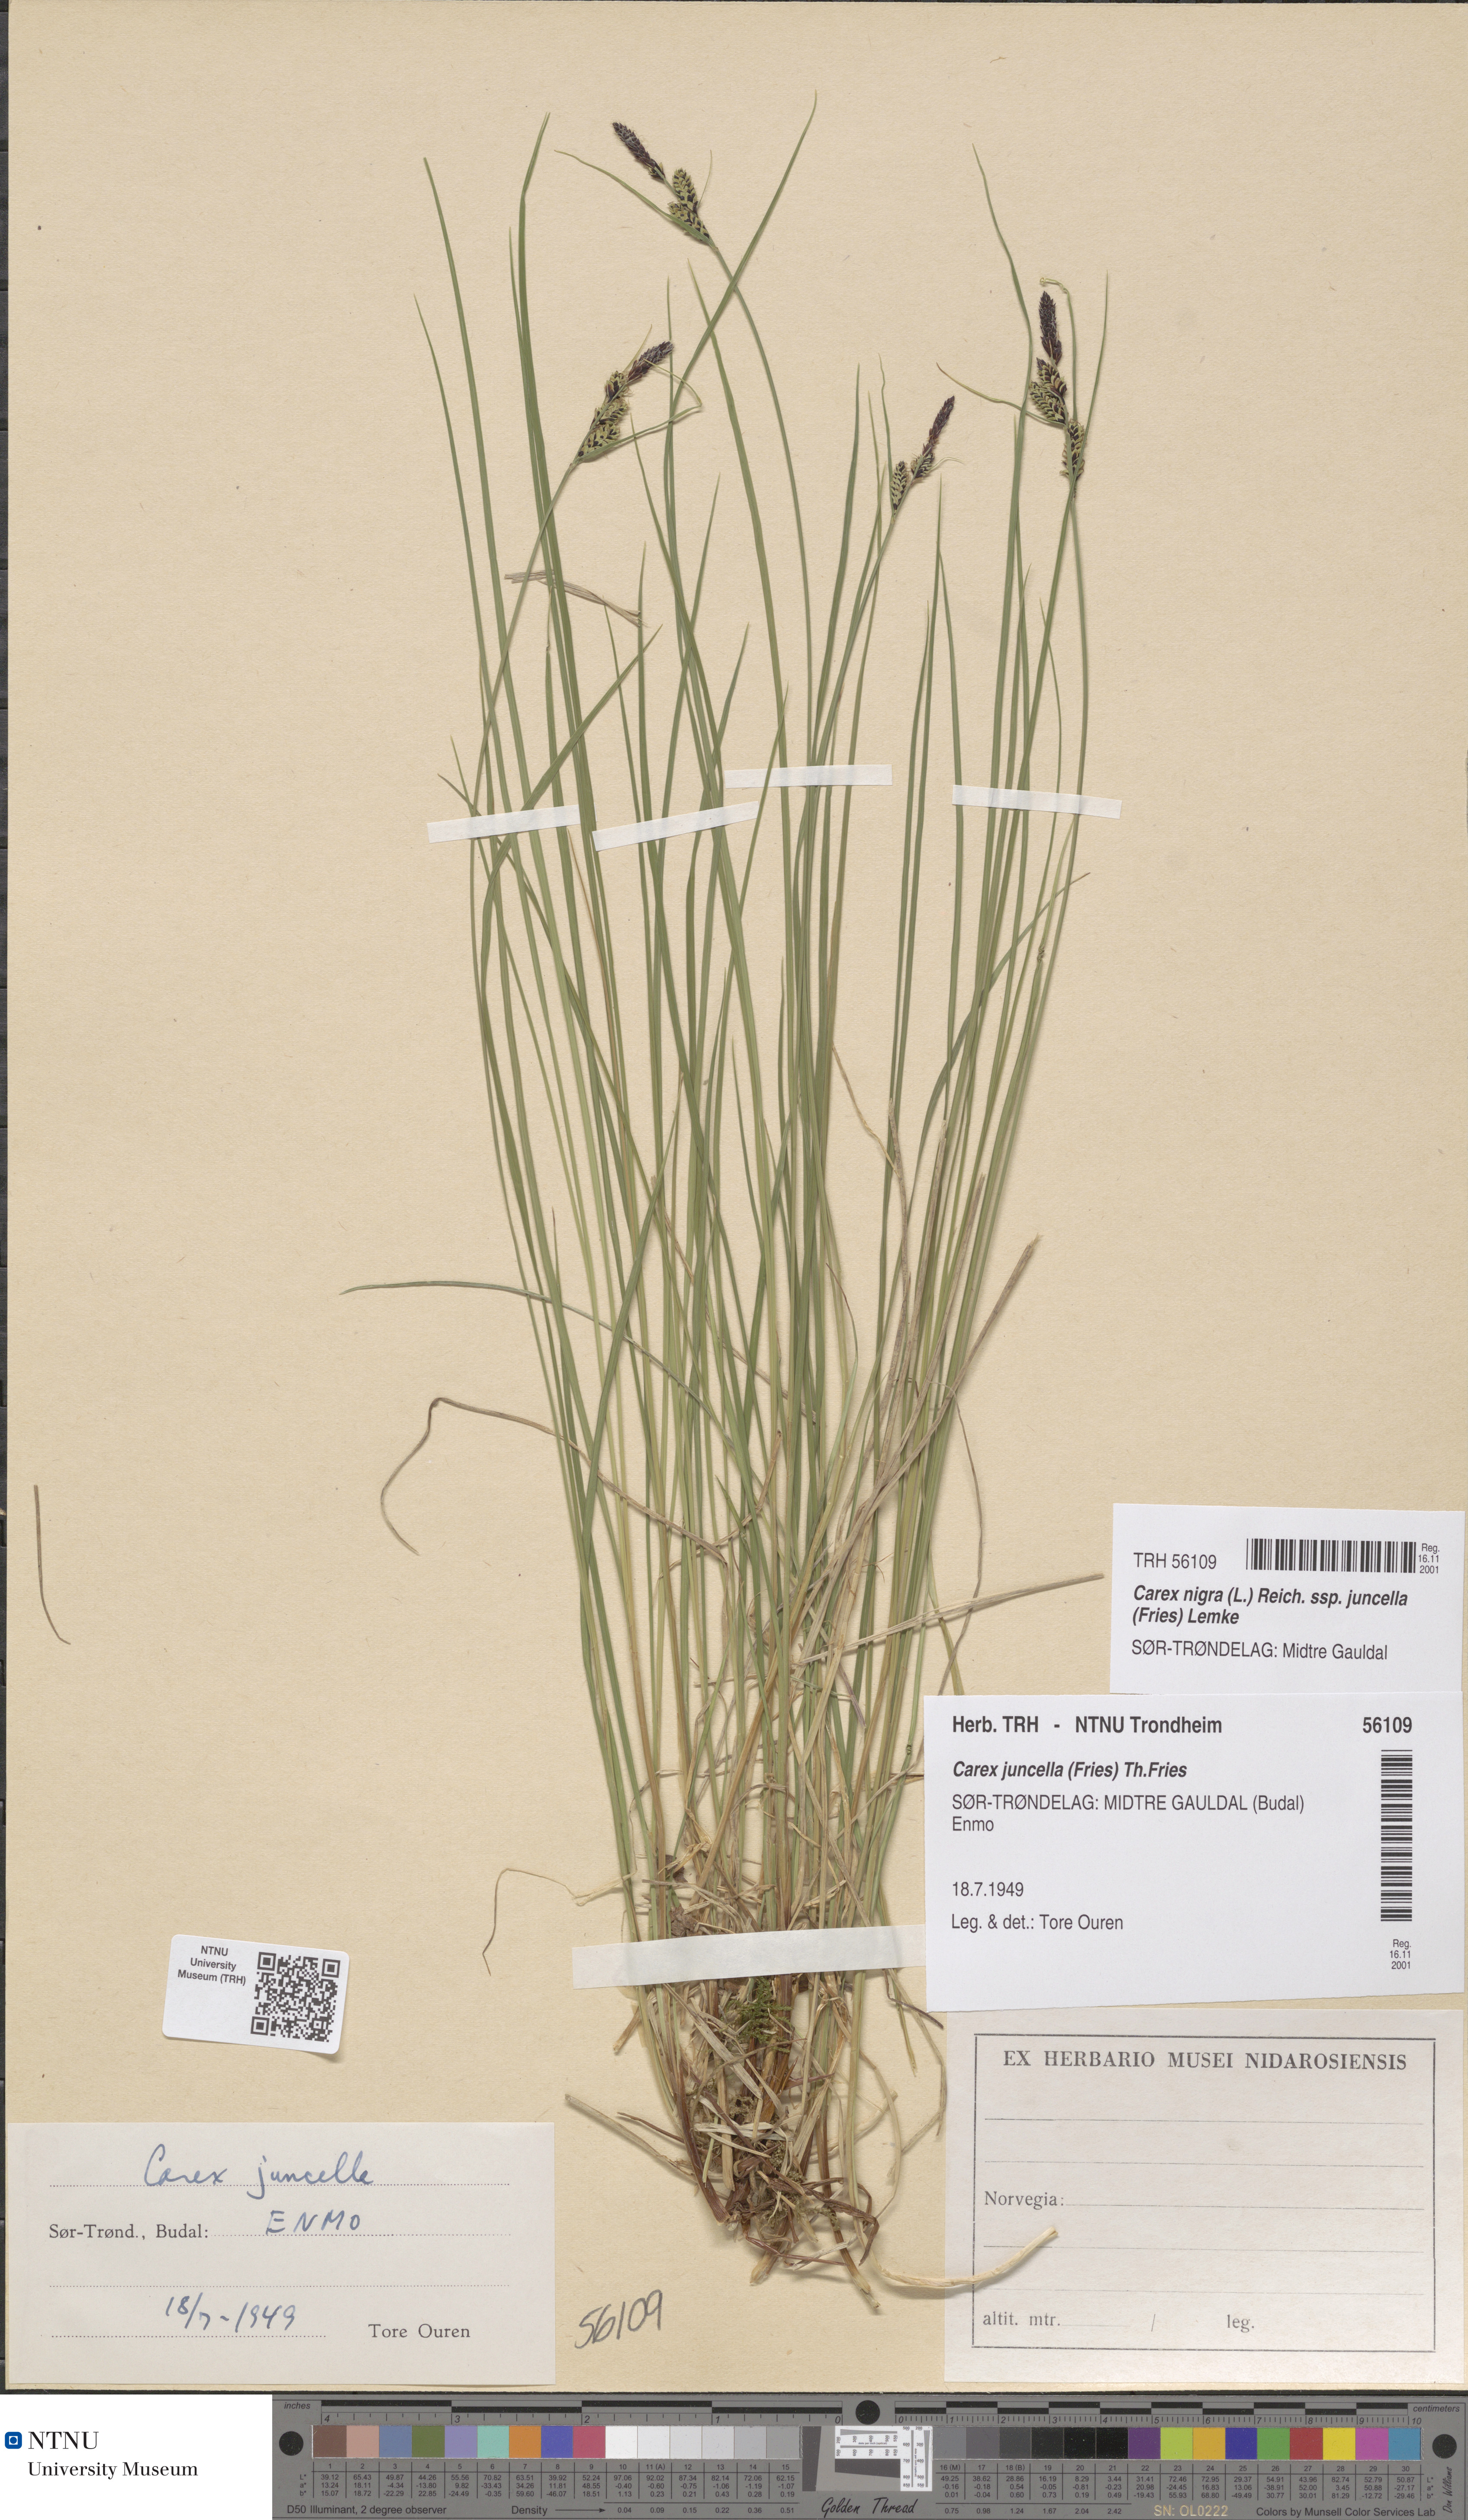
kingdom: Plantae
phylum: Tracheophyta
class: Liliopsida
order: Poales
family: Cyperaceae
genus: Carex
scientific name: Carex nigra
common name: Common sedge
